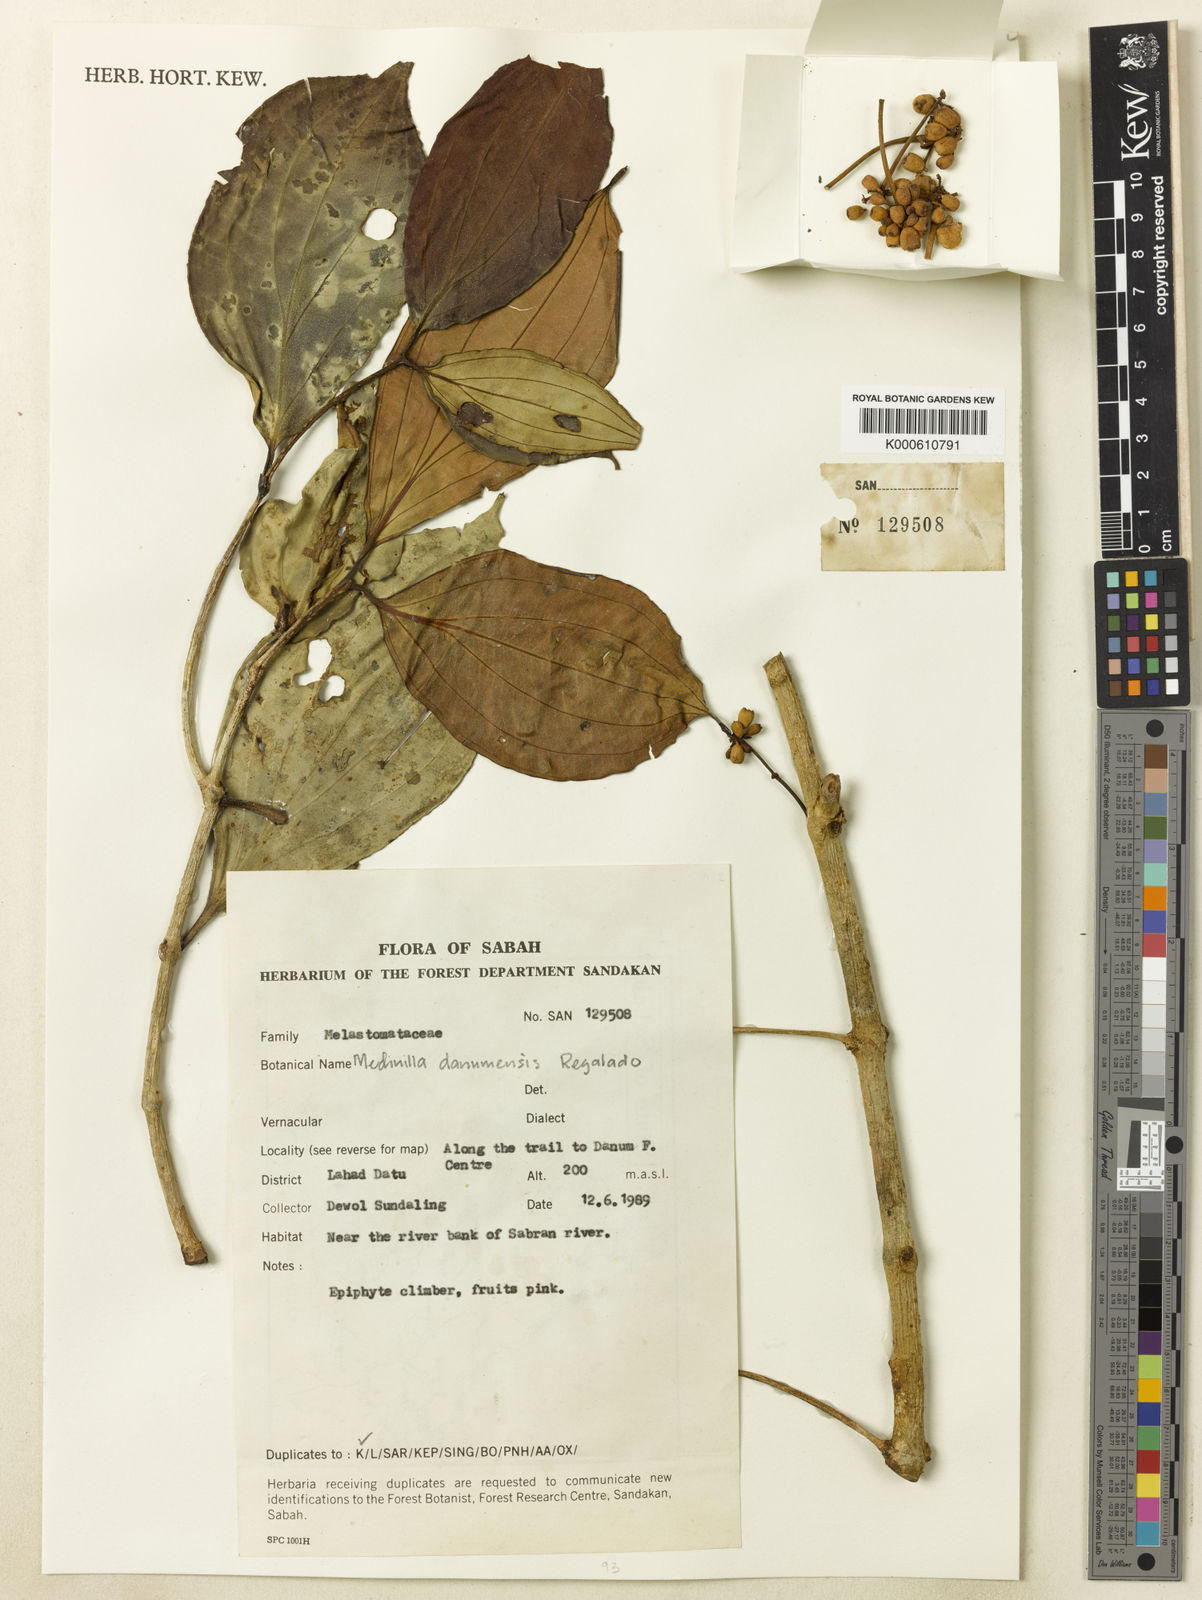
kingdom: Plantae
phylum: Tracheophyta
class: Magnoliopsida
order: Myrtales
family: Melastomataceae
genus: Medinilla
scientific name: Medinilla danumensis
